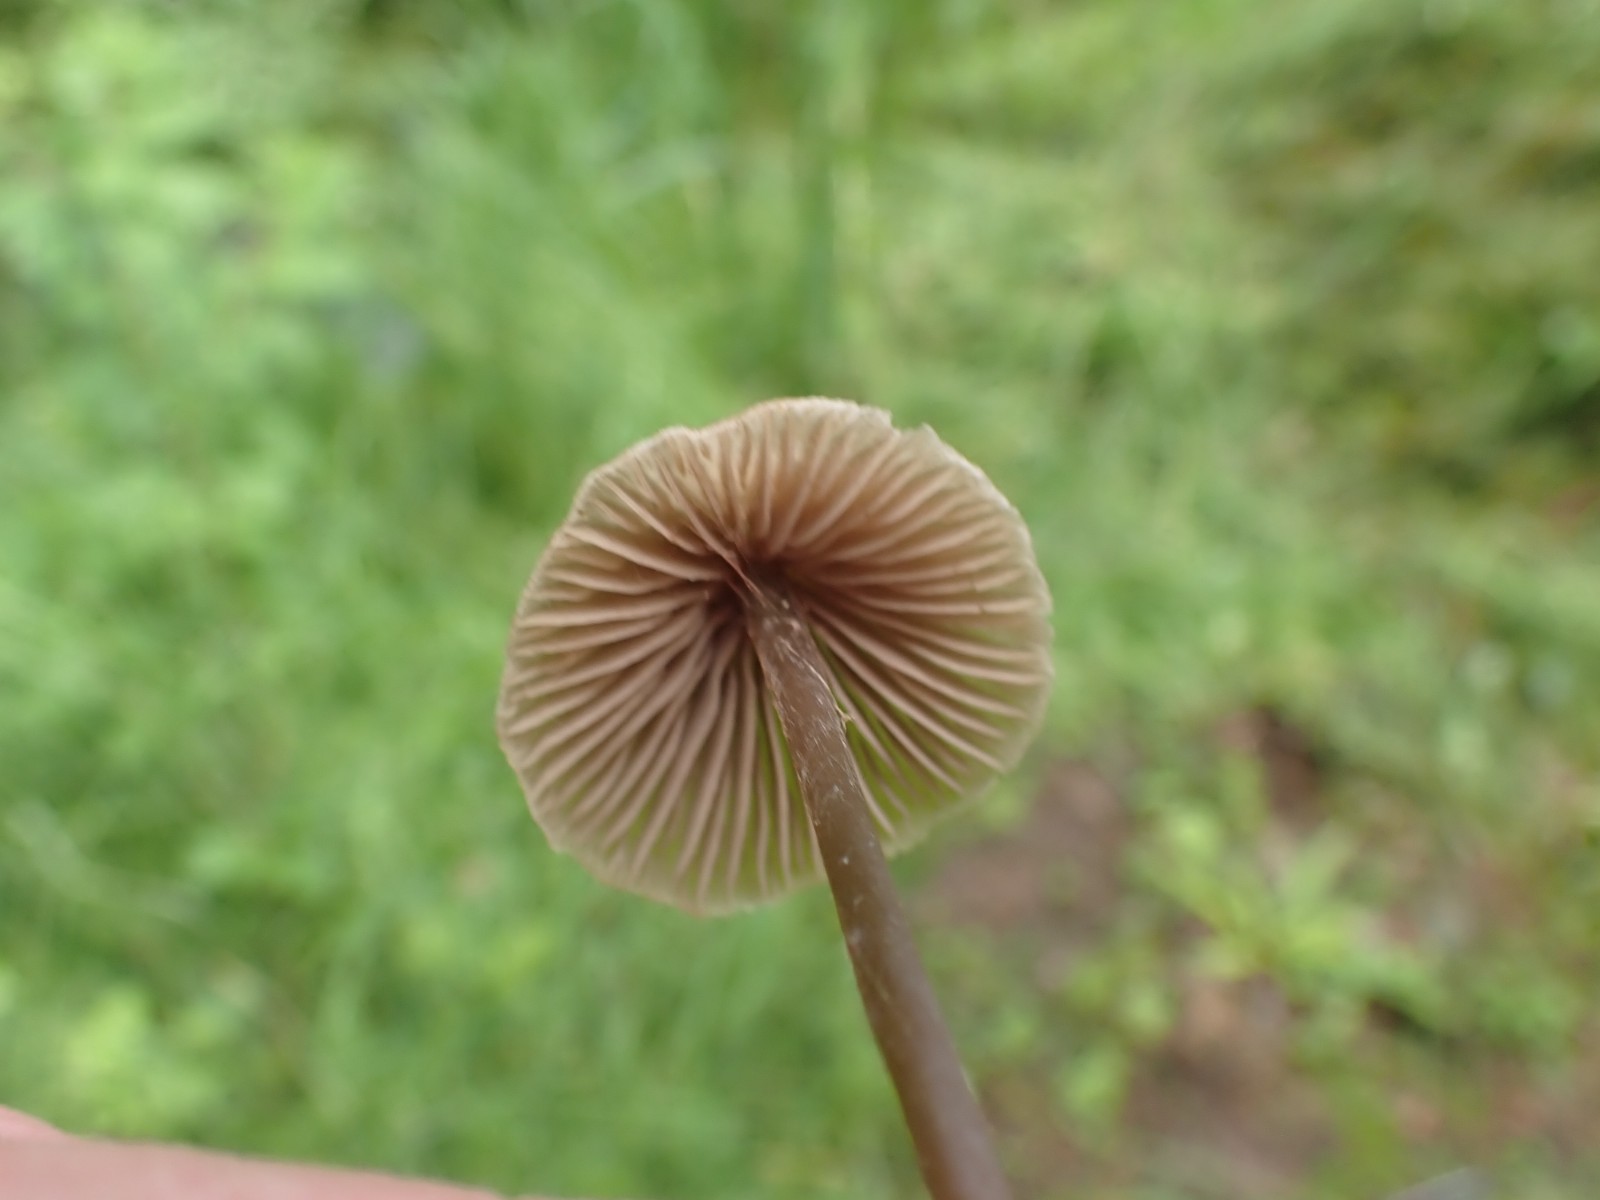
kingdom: Fungi
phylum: Basidiomycota
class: Agaricomycetes
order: Agaricales
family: Entolomataceae
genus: Entoloma
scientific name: Entoloma
